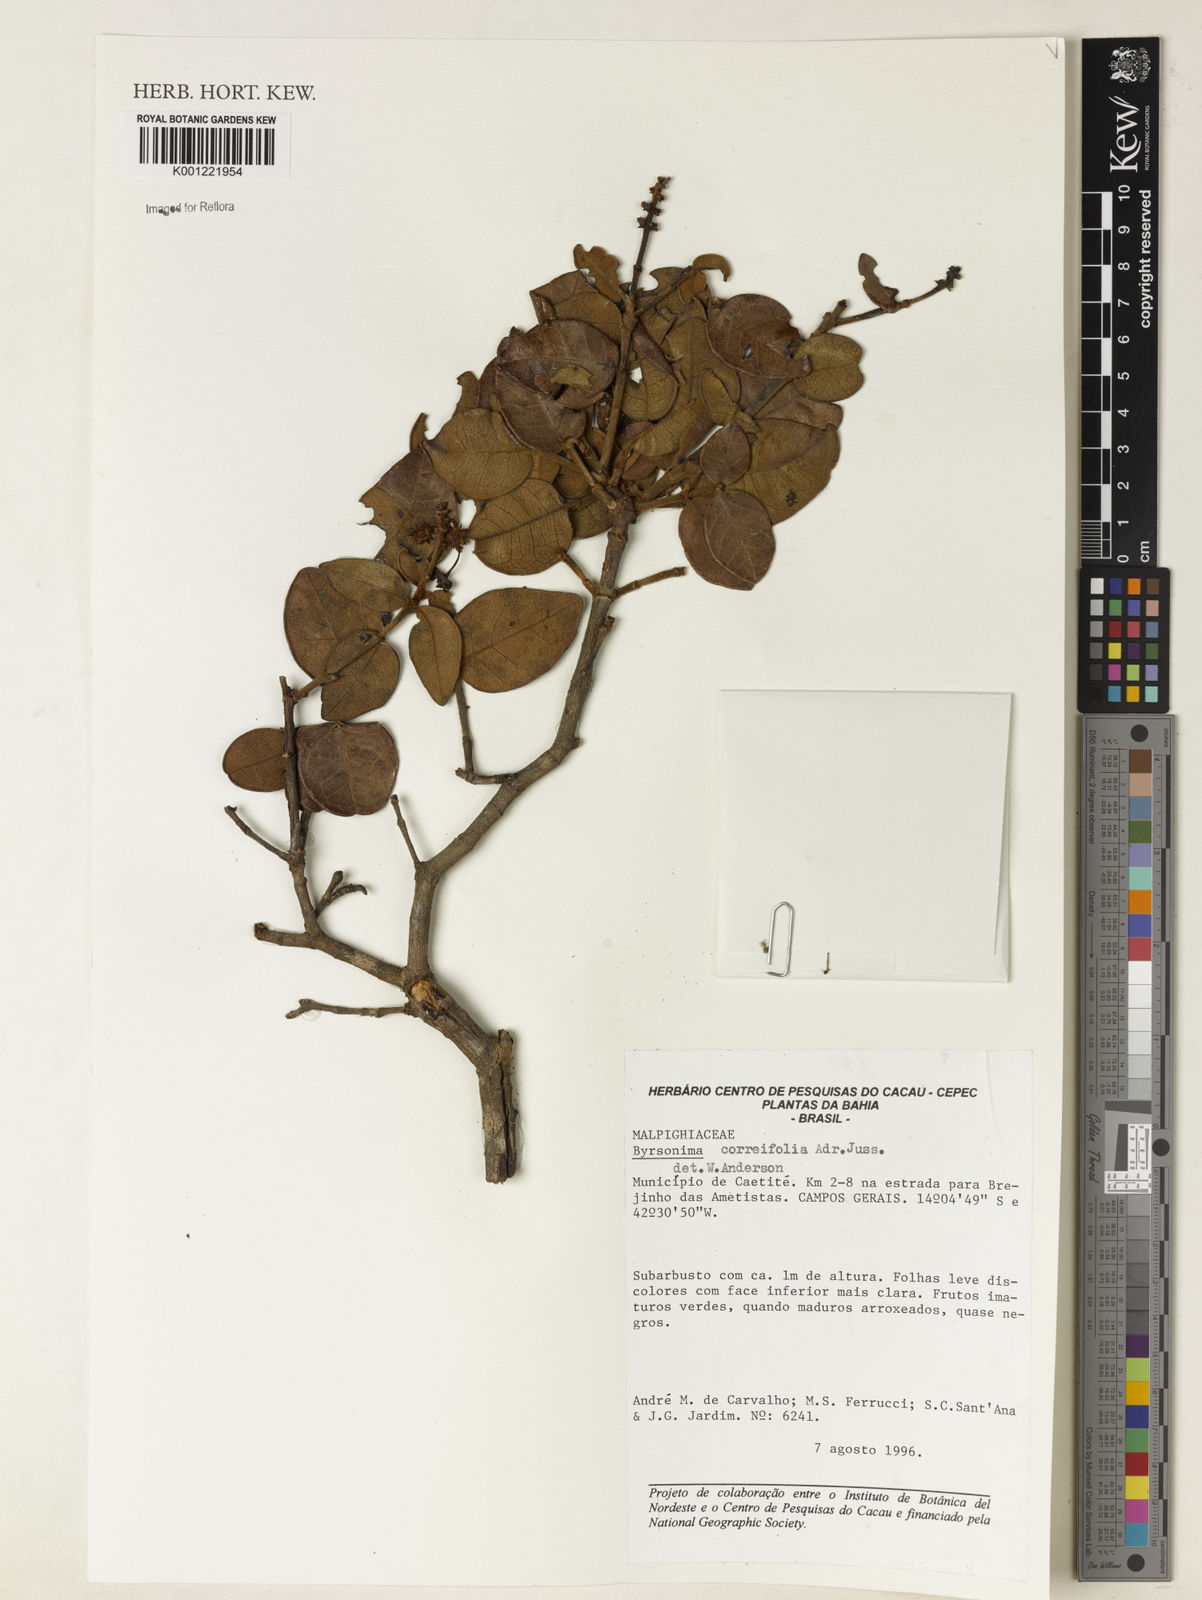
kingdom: Plantae
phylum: Tracheophyta
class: Magnoliopsida
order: Malpighiales
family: Malpighiaceae
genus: Byrsonima
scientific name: Byrsonima correifolia
